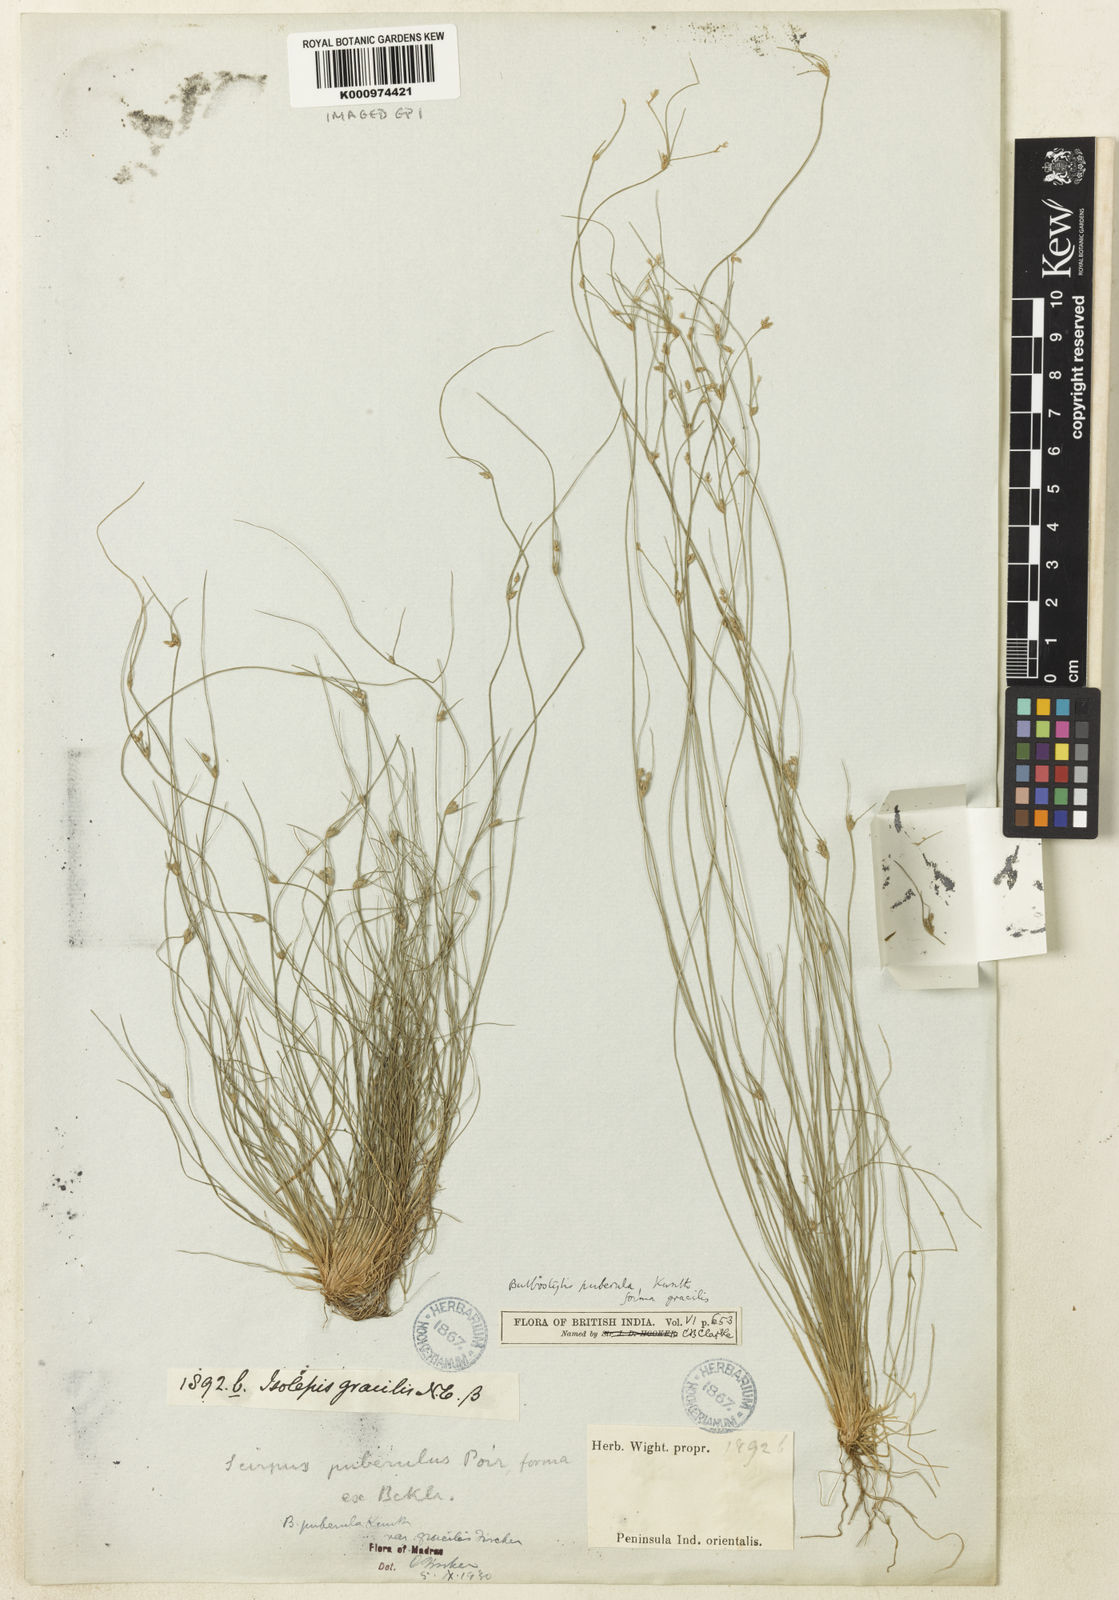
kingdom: Plantae
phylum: Tracheophyta
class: Liliopsida
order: Poales
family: Cyperaceae
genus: Bulbostylis
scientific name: Bulbostylis thouarsii
